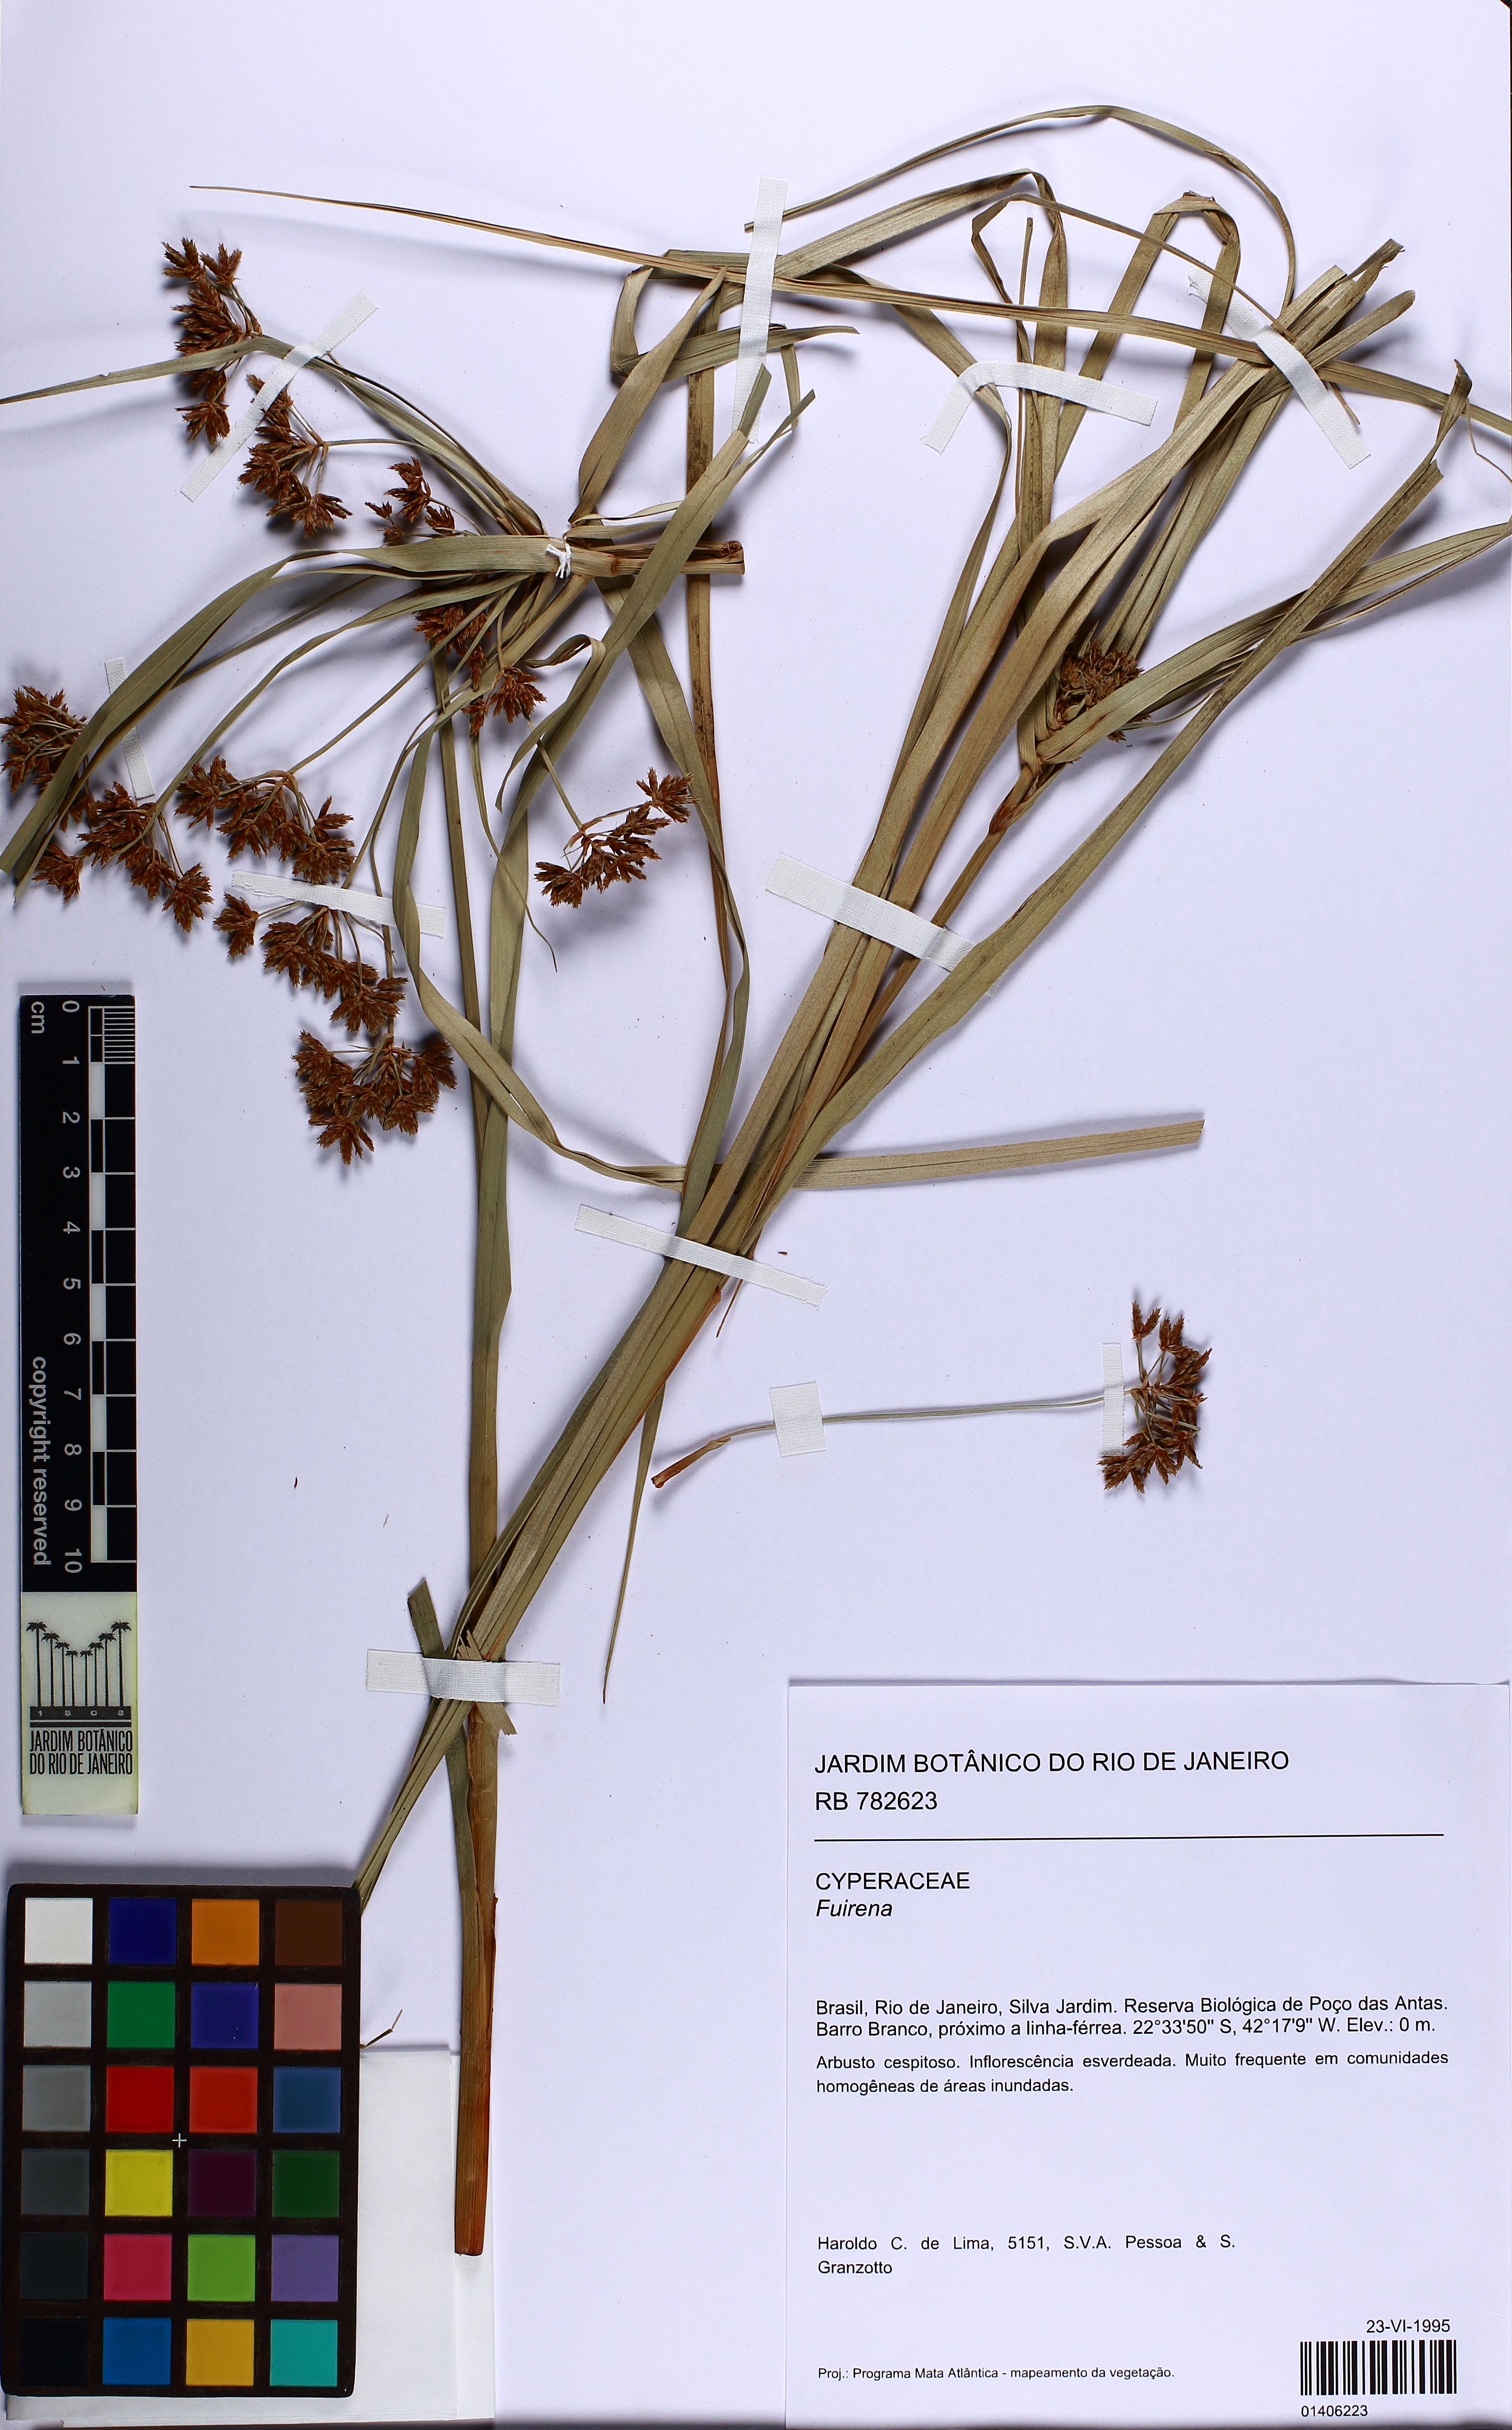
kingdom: Plantae
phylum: Tracheophyta
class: Liliopsida
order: Poales
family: Cyperaceae
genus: Fuirena
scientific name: Fuirena
